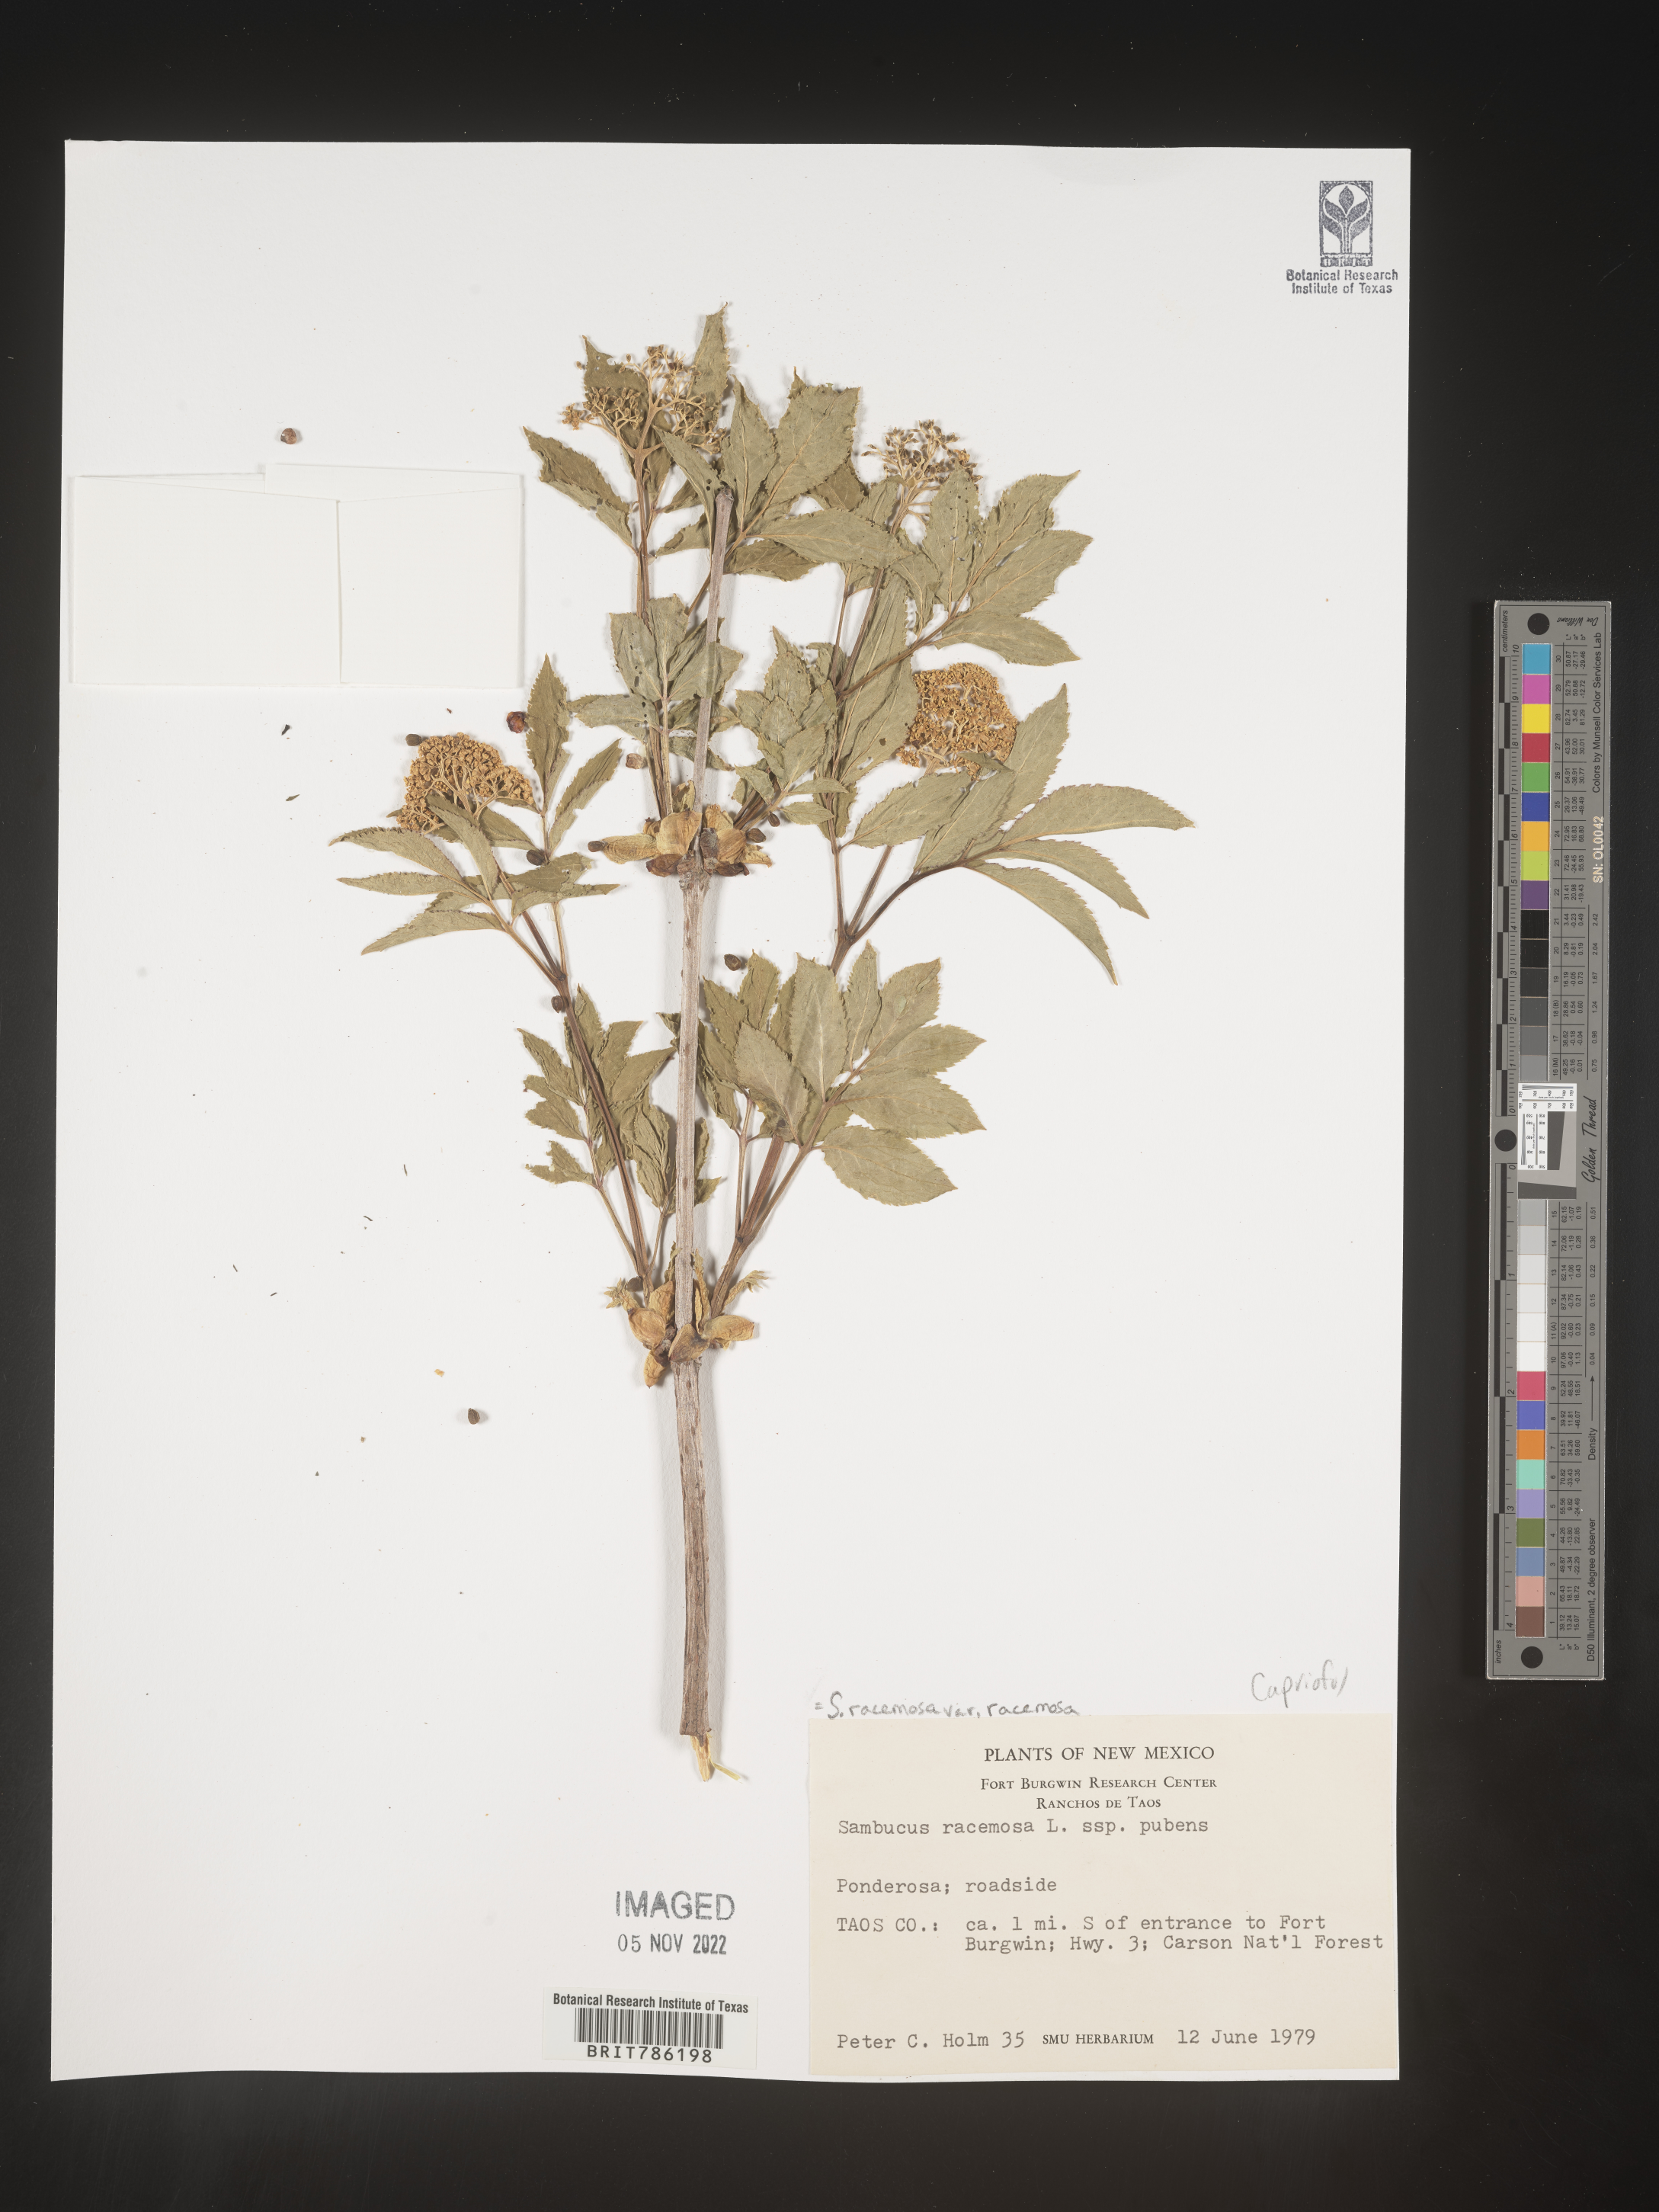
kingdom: Plantae
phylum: Tracheophyta
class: Magnoliopsida
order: Dipsacales
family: Viburnaceae
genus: Sambucus
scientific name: Sambucus
